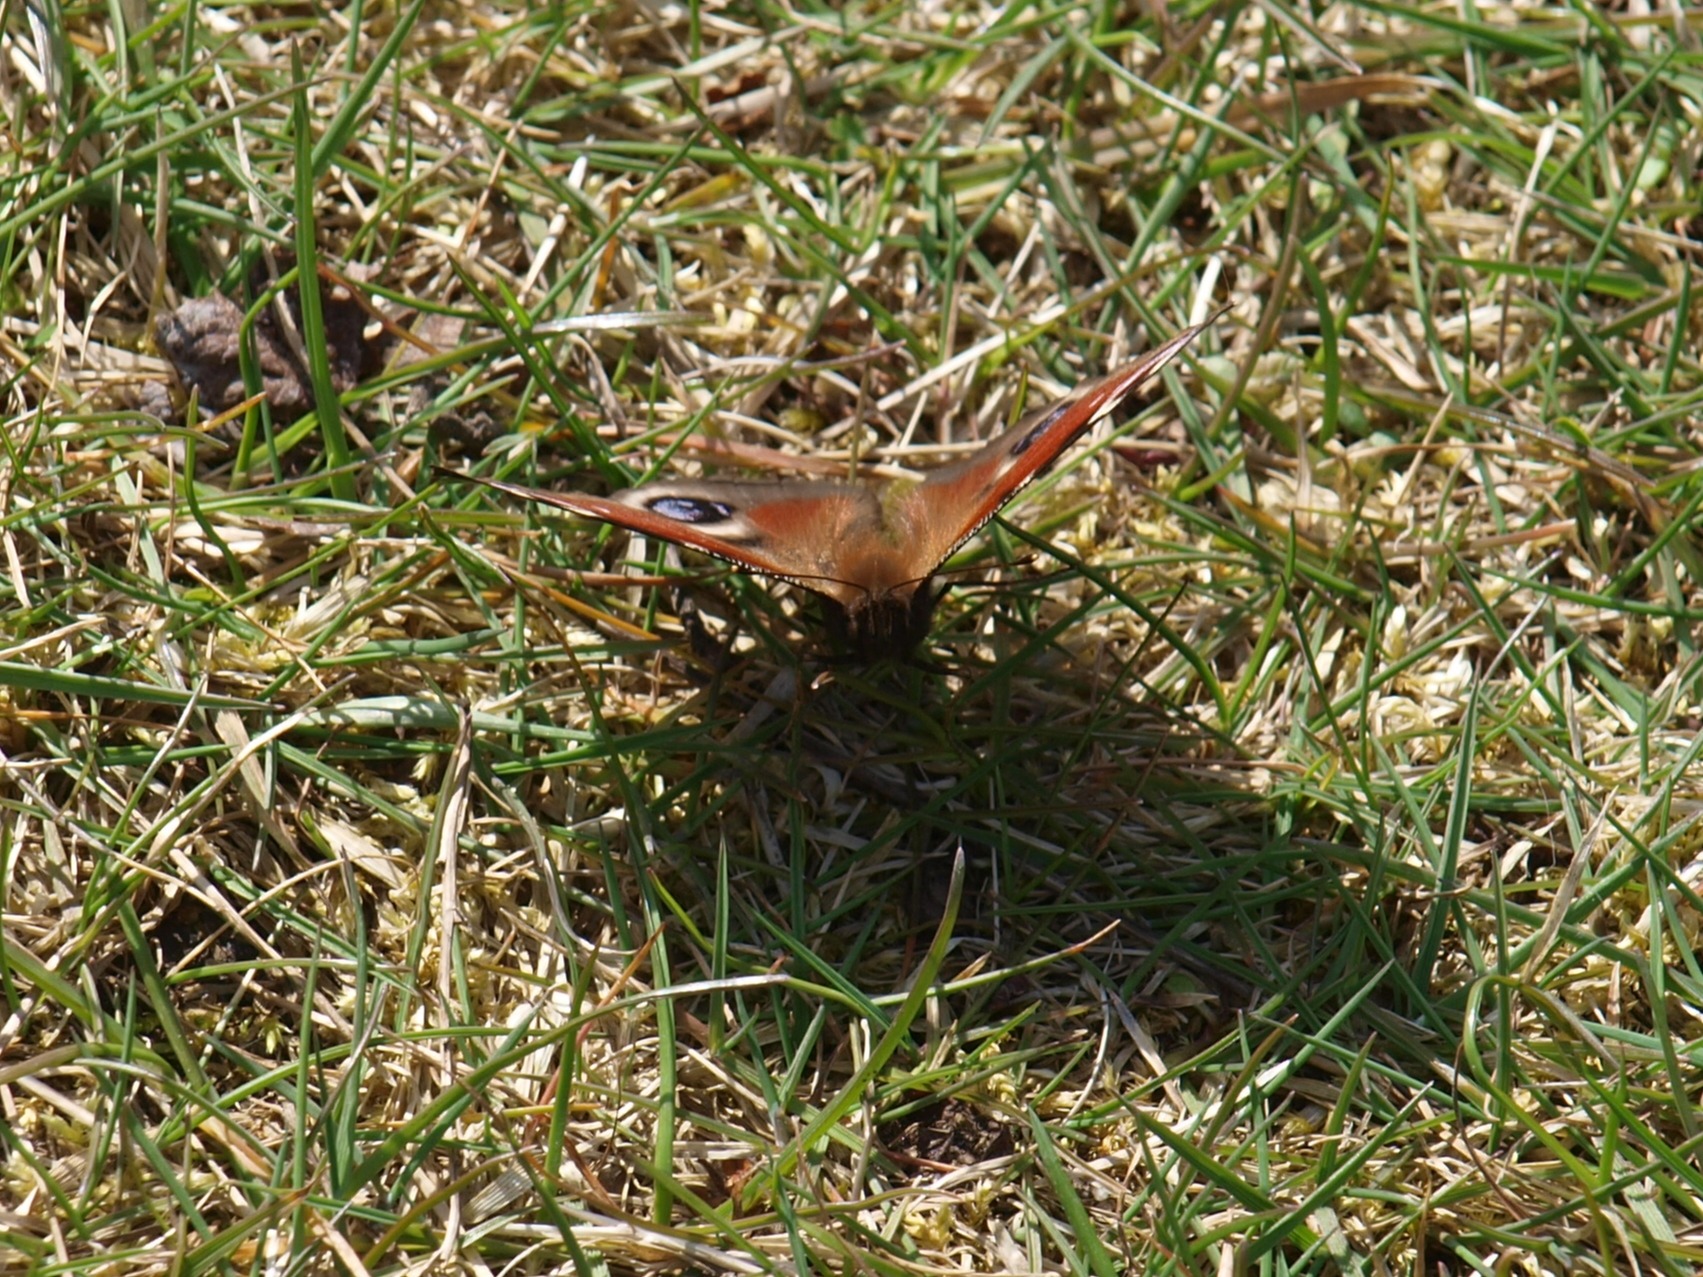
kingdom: Animalia
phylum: Arthropoda
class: Insecta
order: Lepidoptera
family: Nymphalidae
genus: Aglais
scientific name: Aglais io
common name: Dagpåfugleøje
